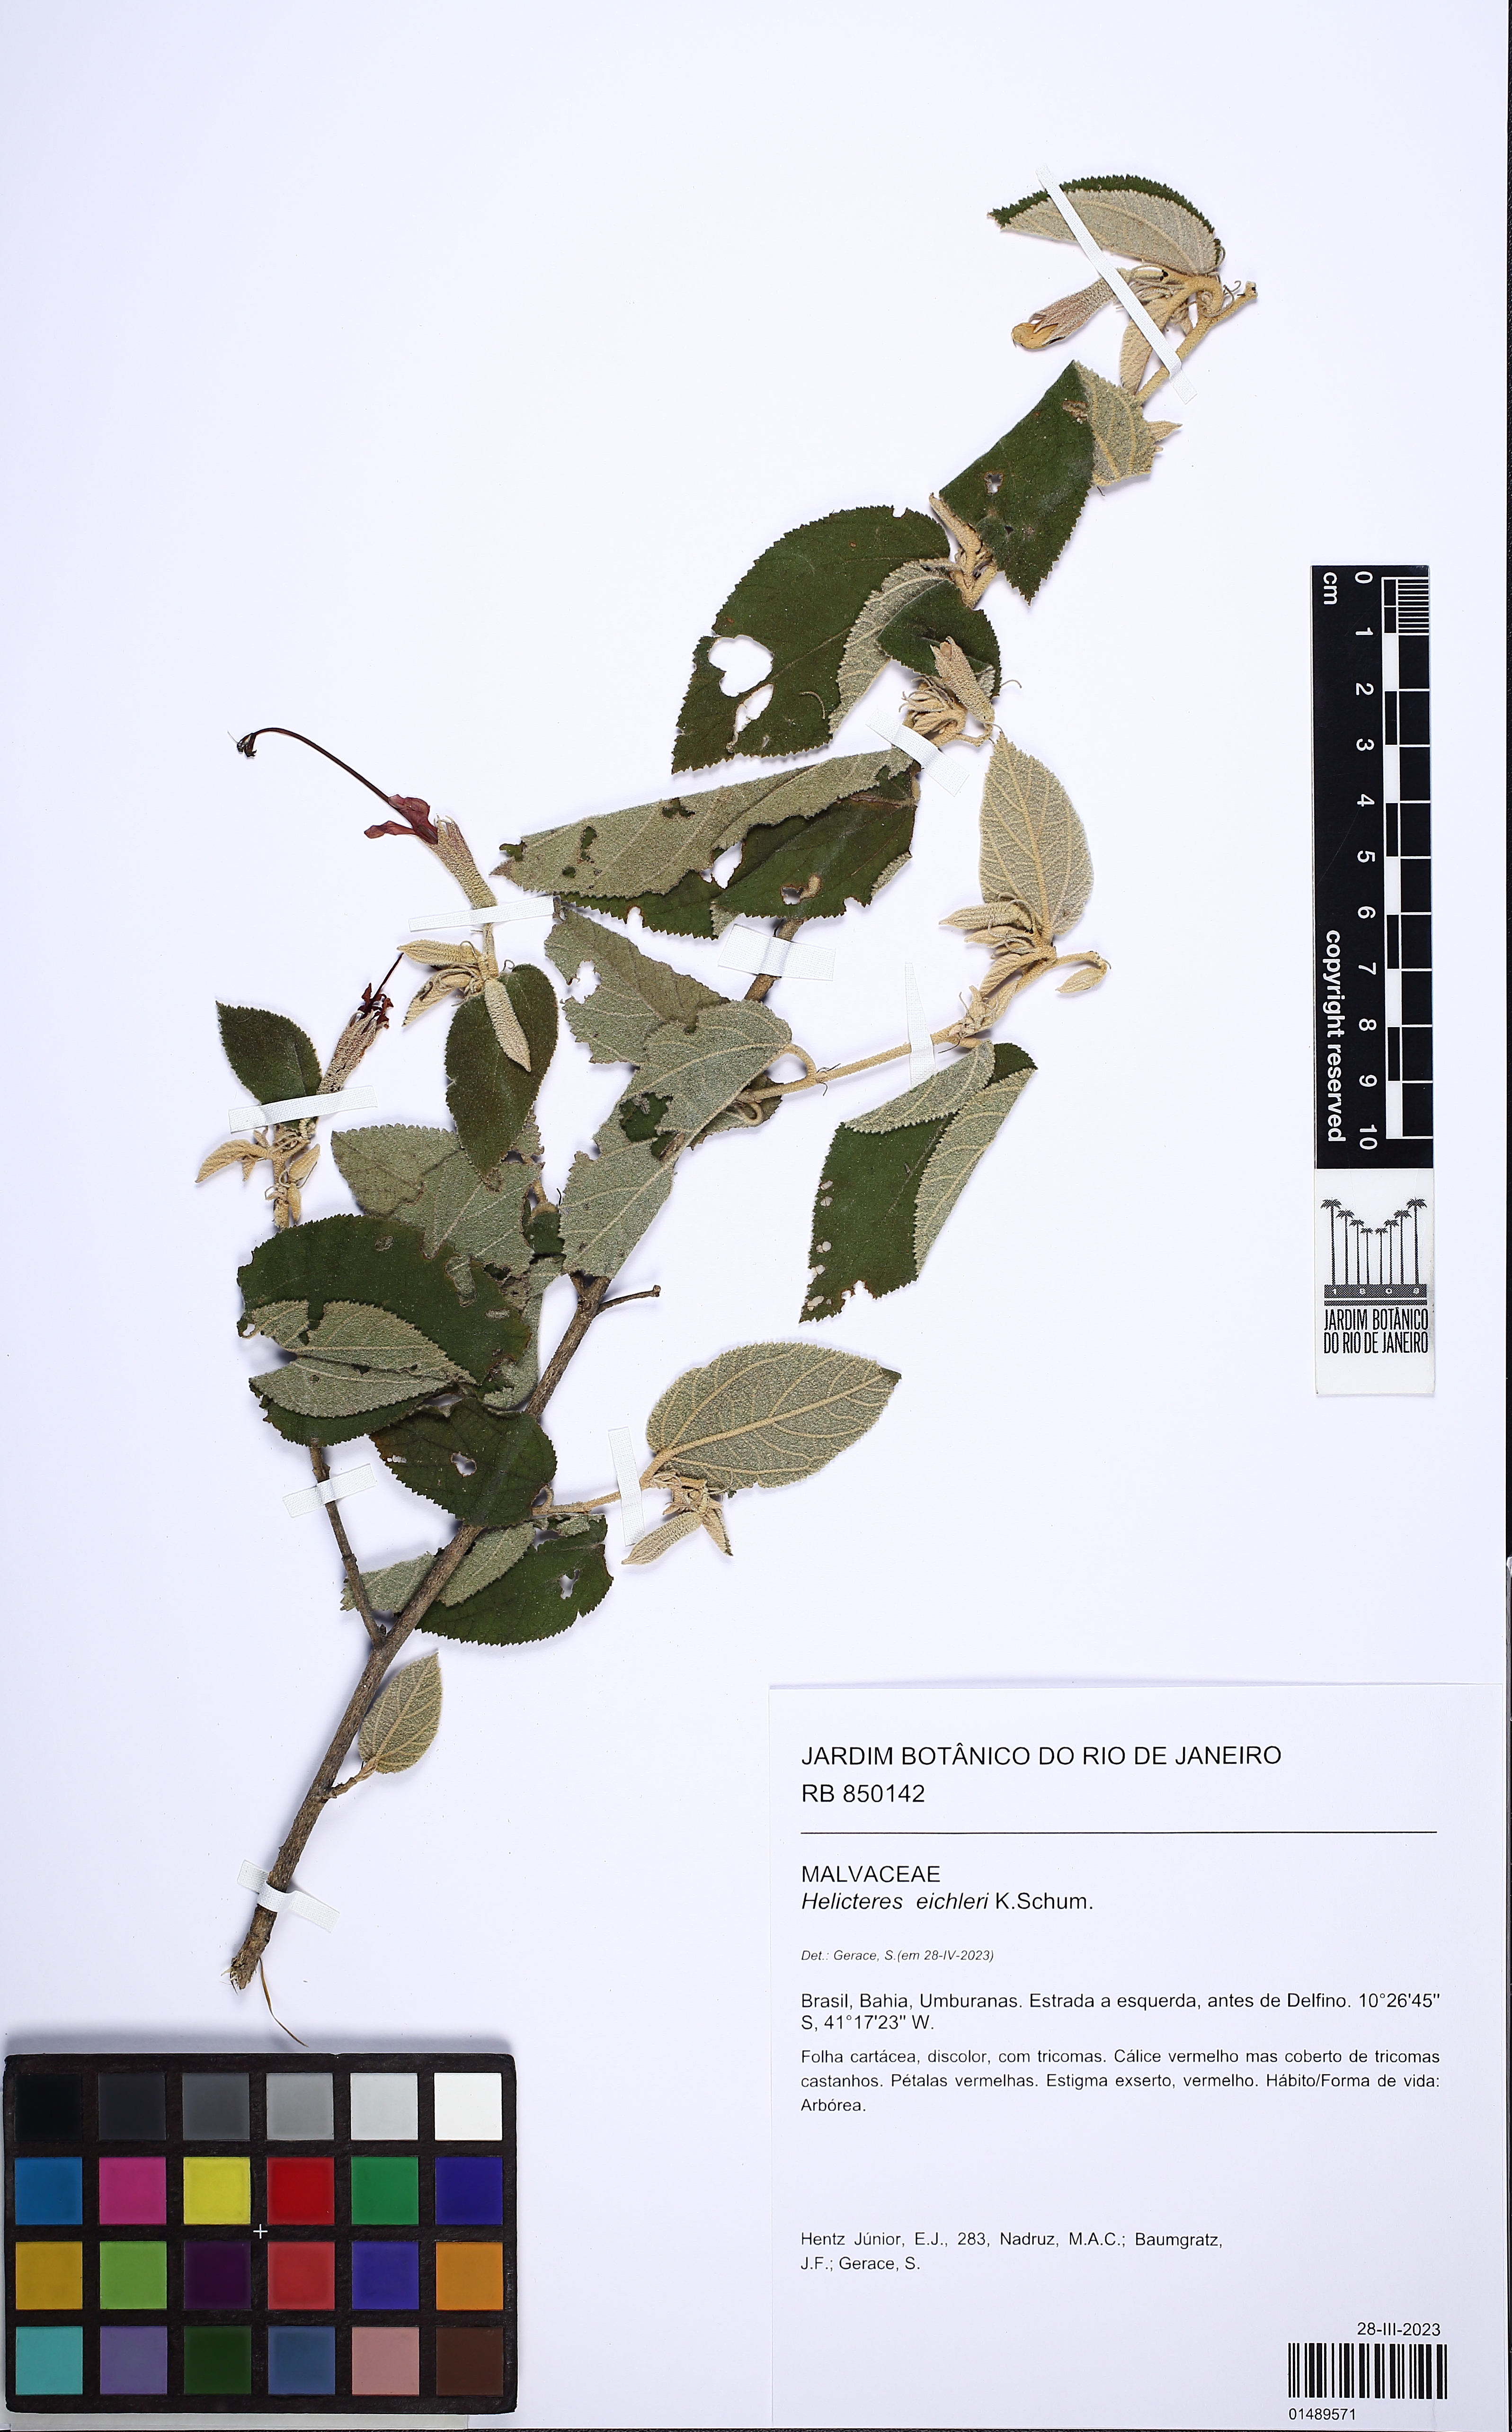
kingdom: Plantae
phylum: Tracheophyta
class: Magnoliopsida
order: Malvales
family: Malvaceae
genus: Helicteres
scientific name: Helicteres eichleri
